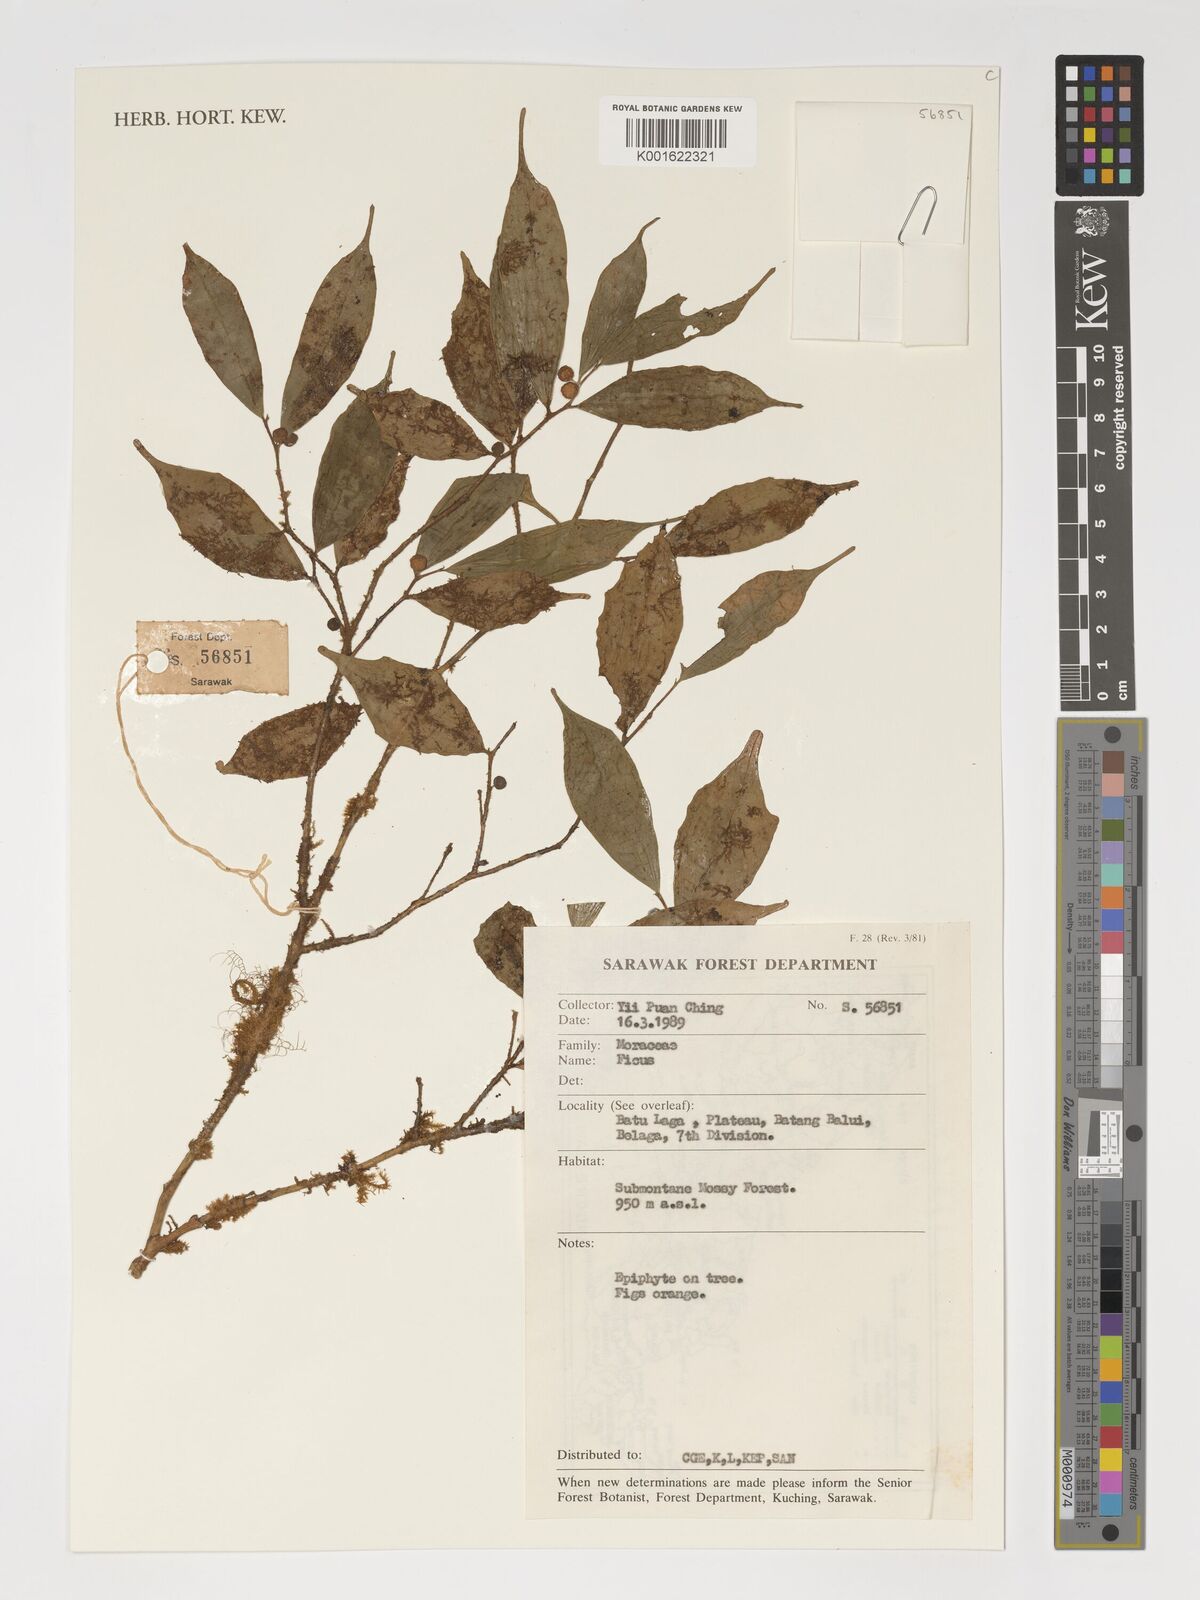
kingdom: Plantae
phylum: Tracheophyta
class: Magnoliopsida
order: Rosales
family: Moraceae
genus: Ficus
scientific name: Ficus
